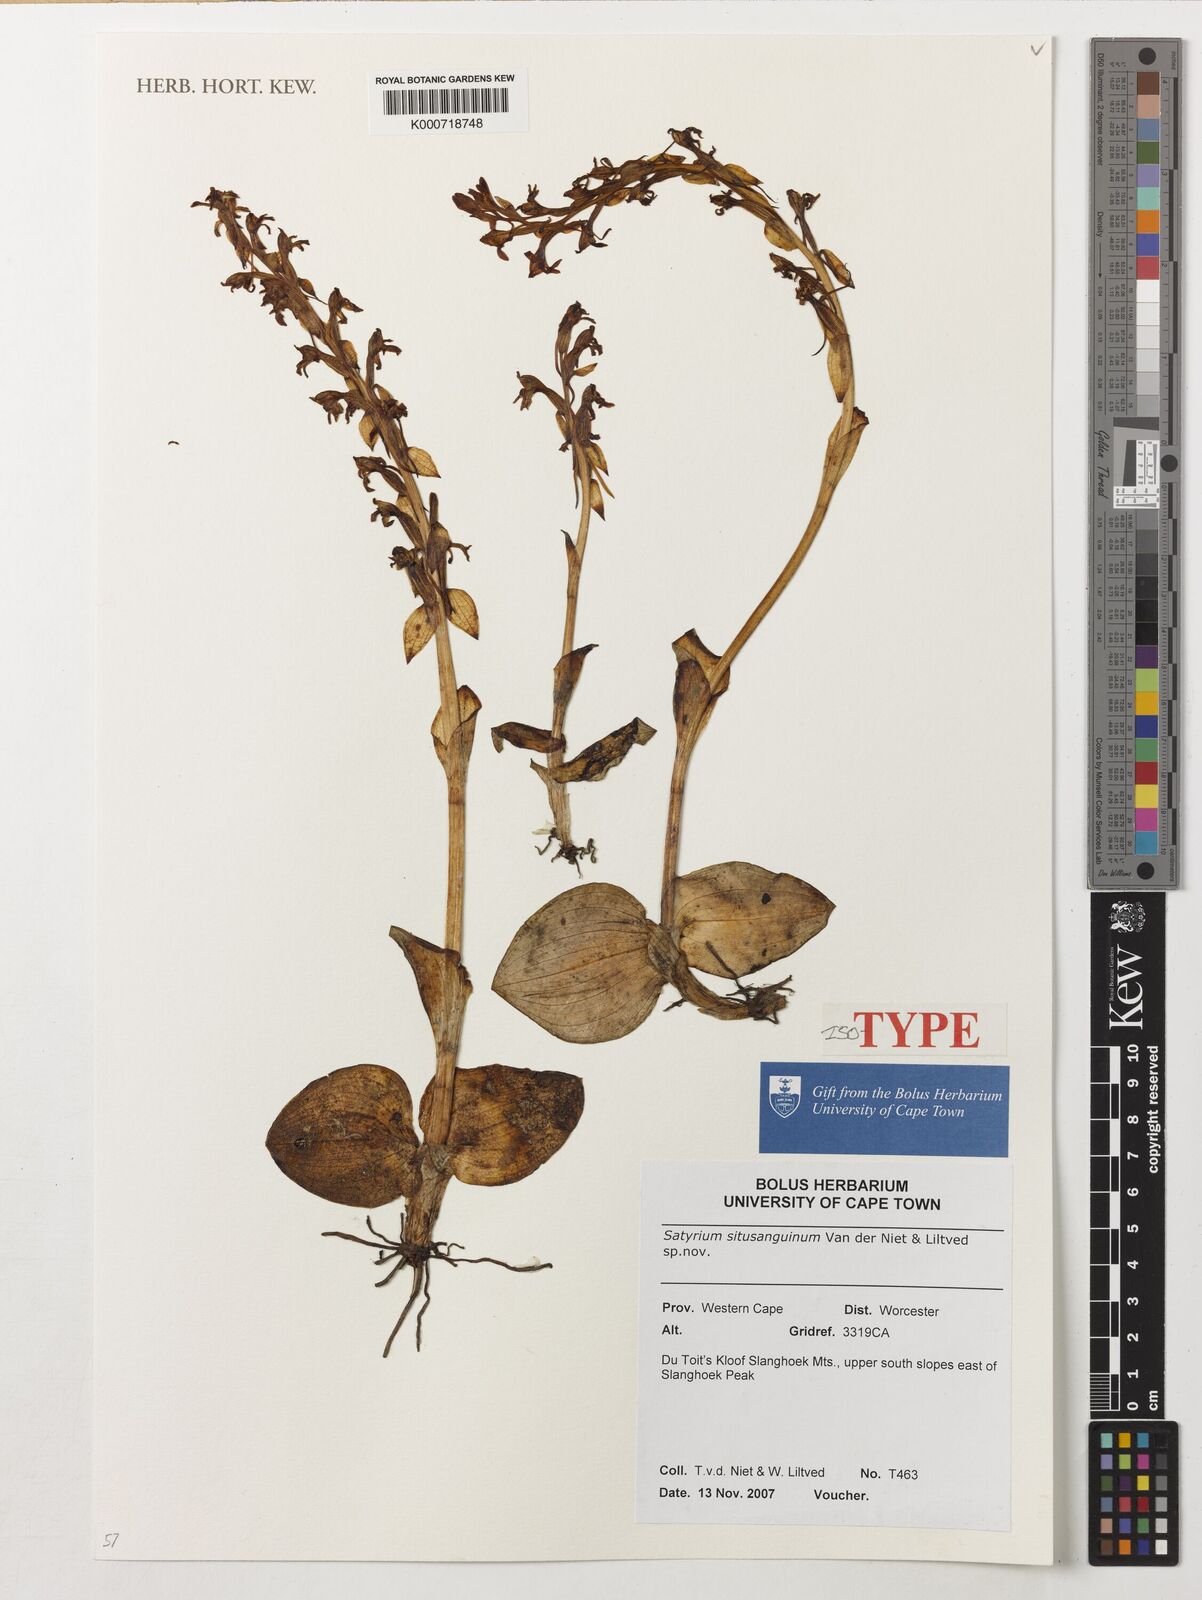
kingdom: Plantae
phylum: Tracheophyta
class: Liliopsida
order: Asparagales
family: Orchidaceae
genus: Satyrium
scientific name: Satyrium situsanguinum
